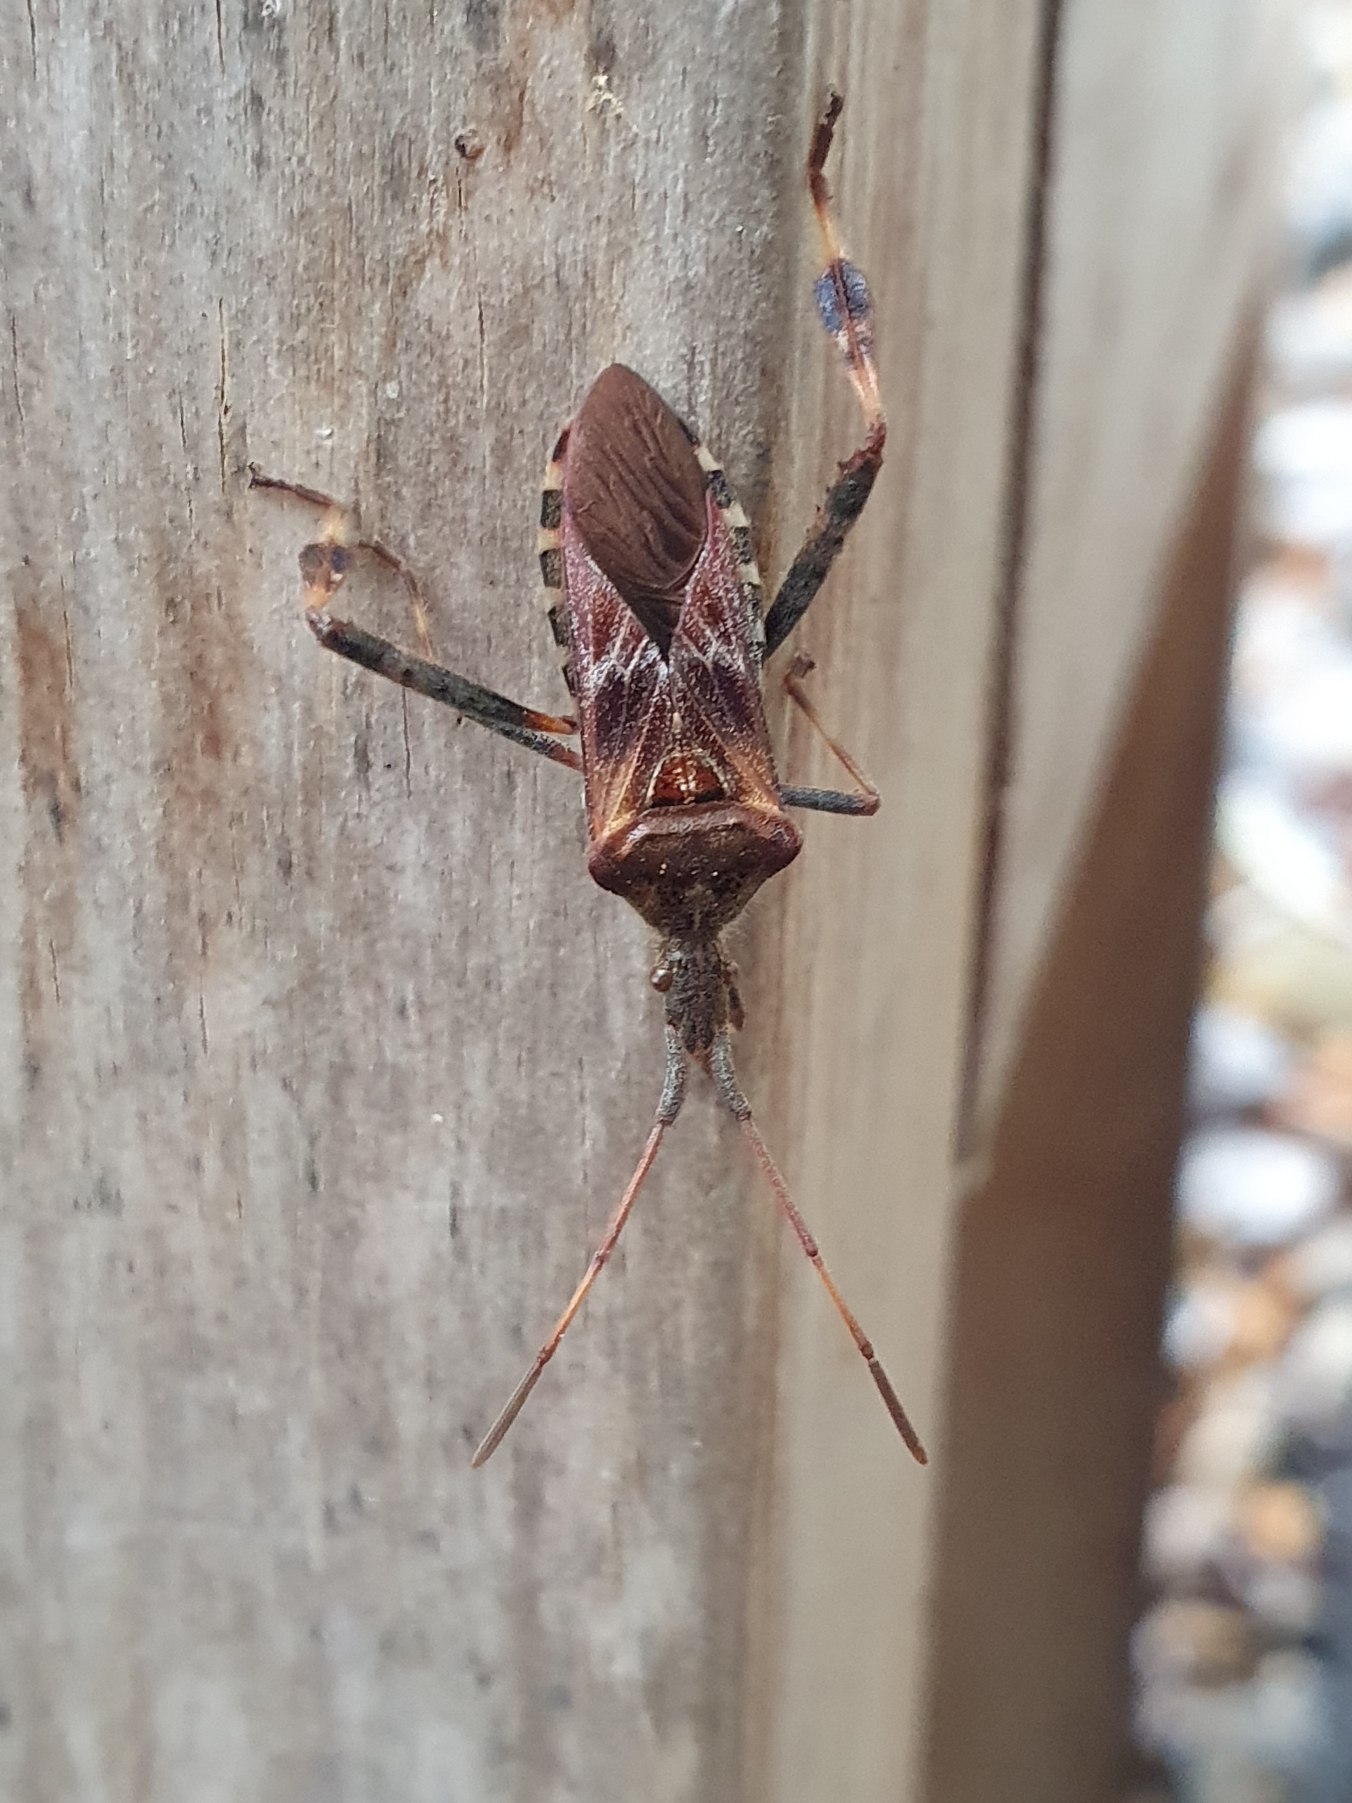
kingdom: Animalia
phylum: Arthropoda
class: Insecta
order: Hemiptera
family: Coreidae
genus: Leptoglossus
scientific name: Leptoglossus occidentalis
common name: Amerikansk fyrretæge
